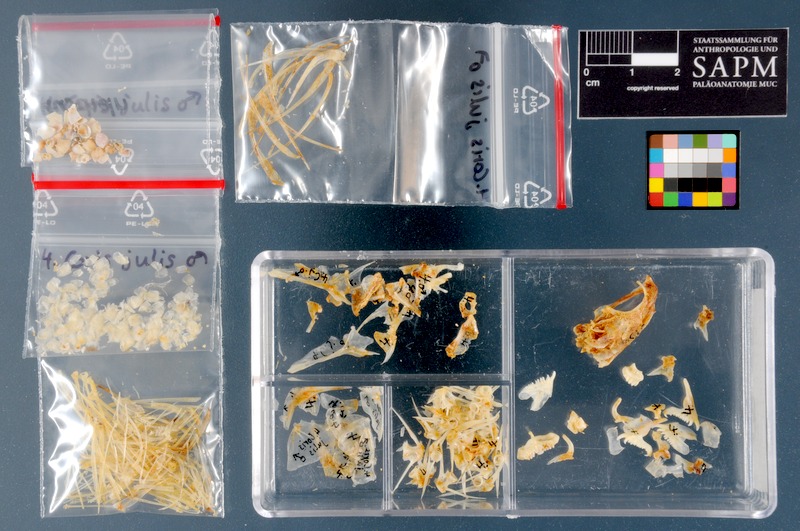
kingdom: Animalia
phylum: Chordata
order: Perciformes
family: Labridae
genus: Coris
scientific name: Coris julis
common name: Rainbow wrasse
